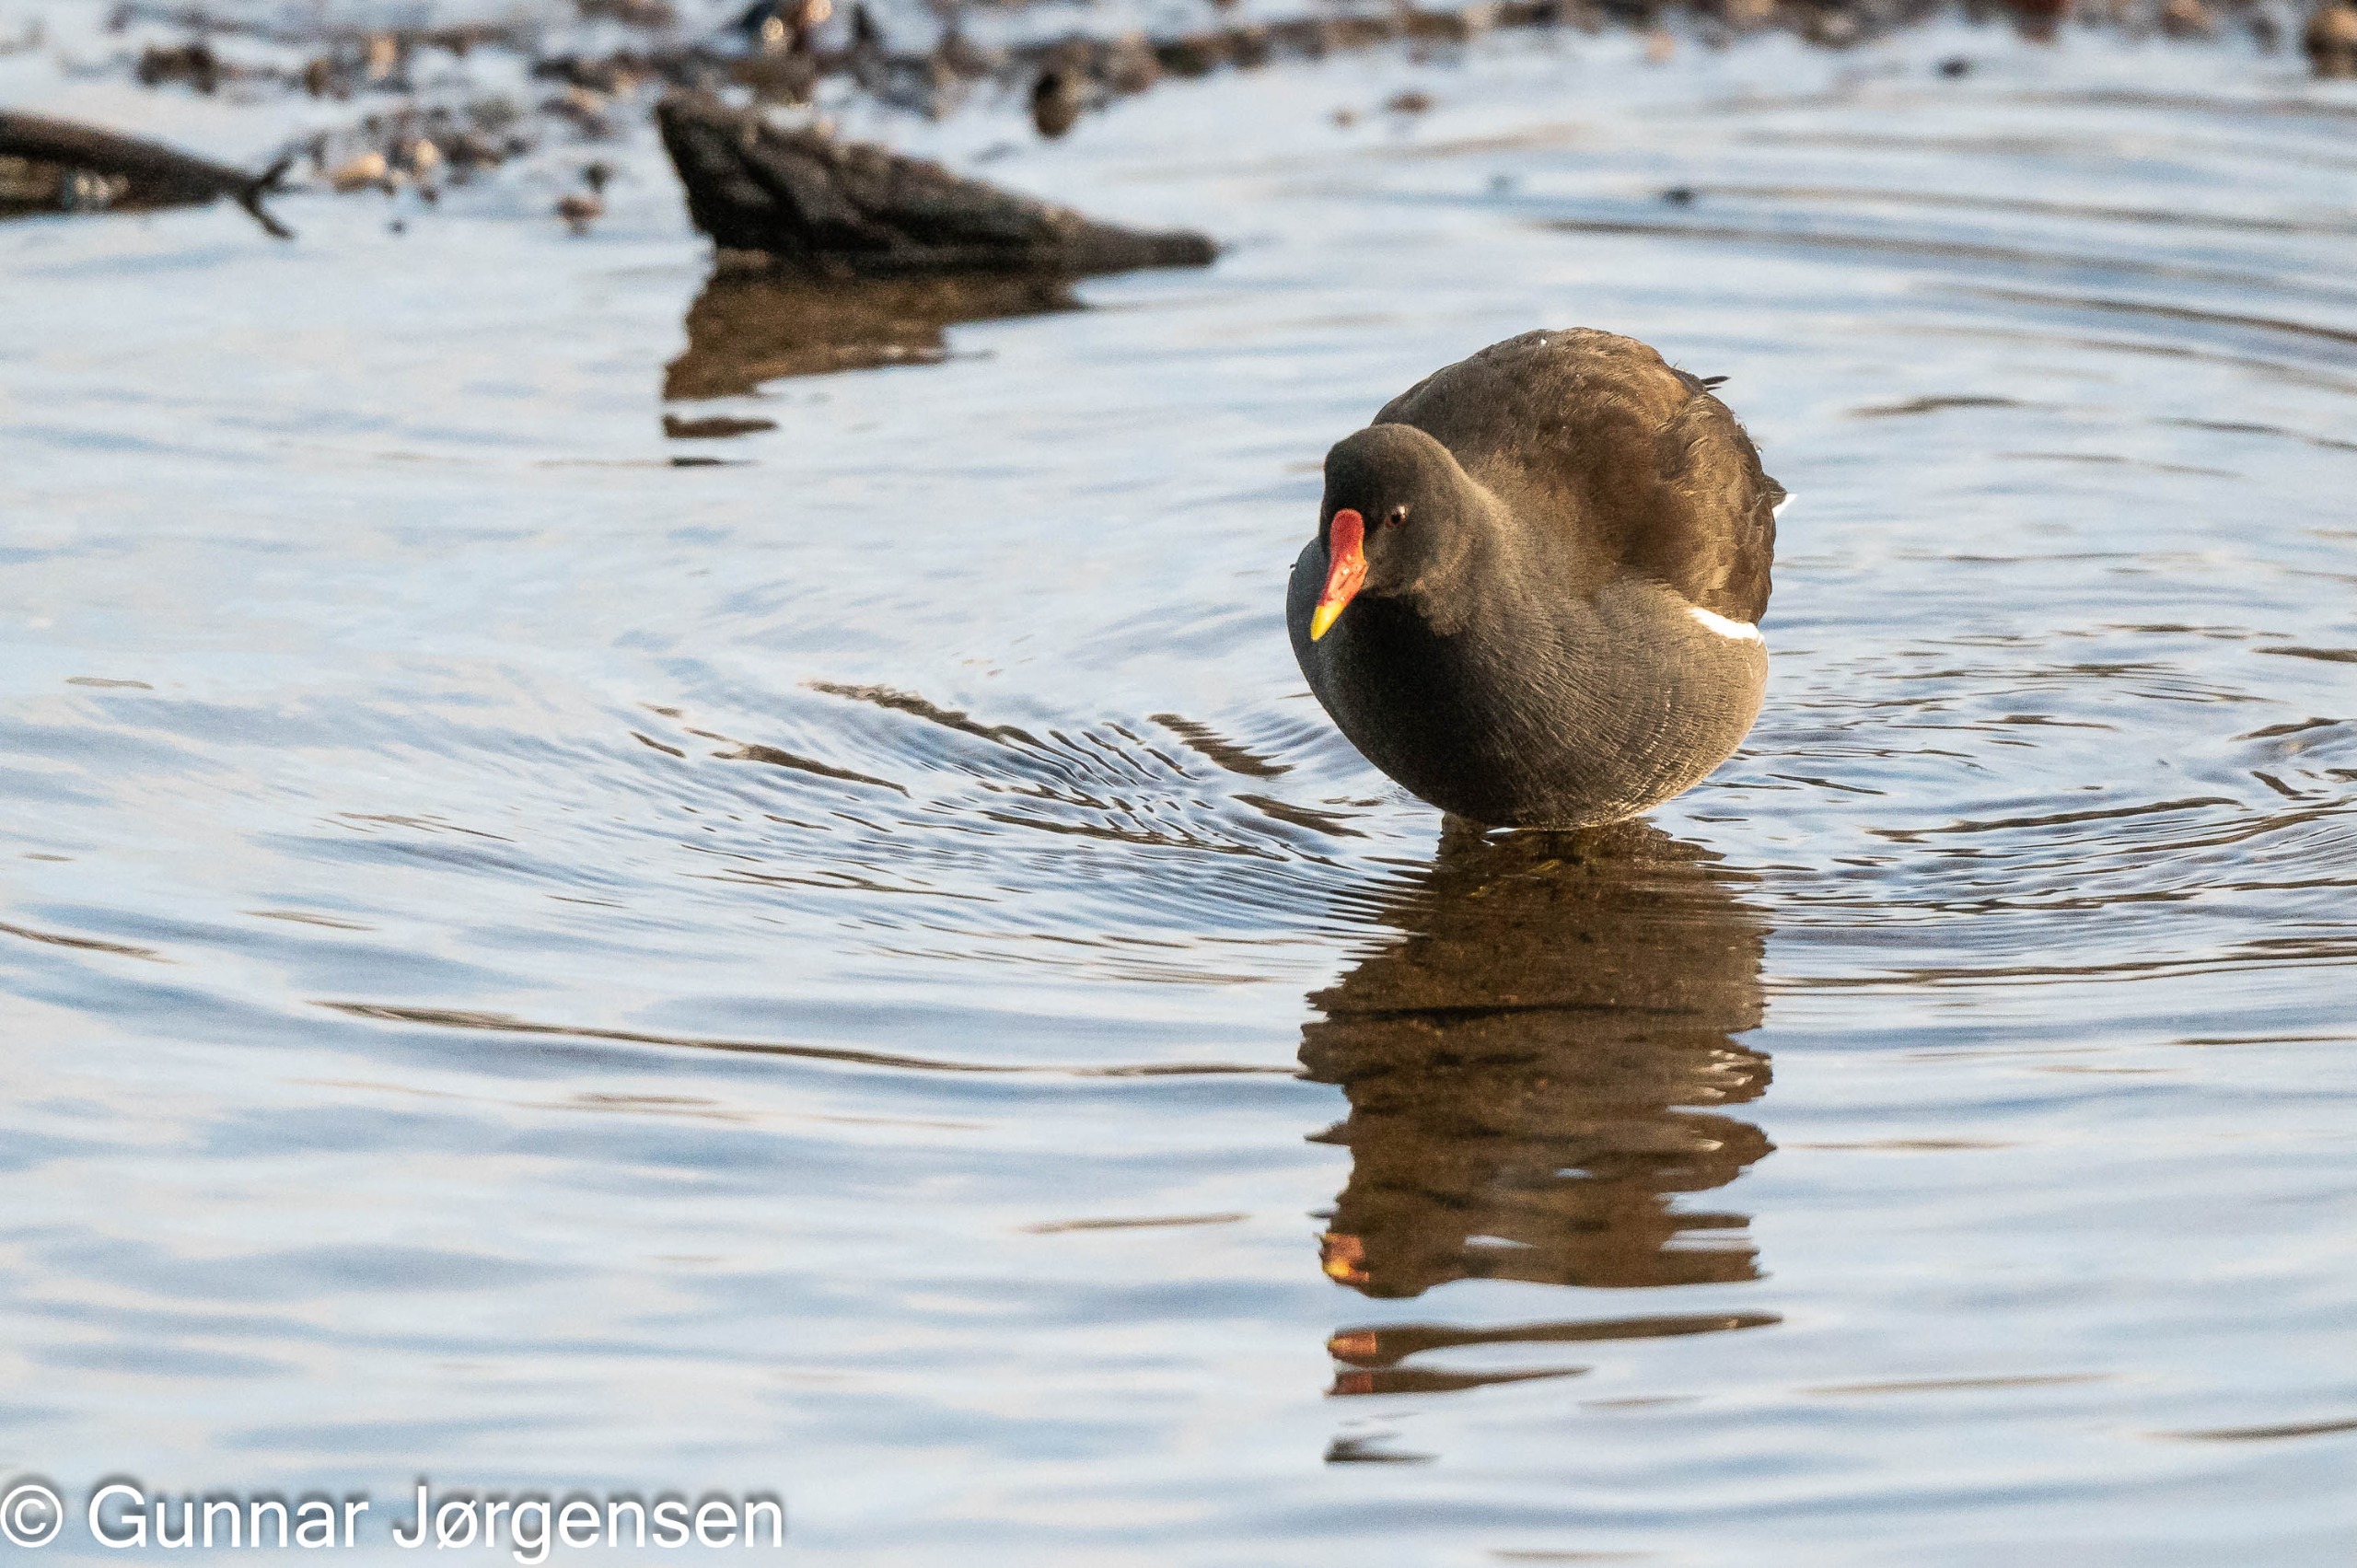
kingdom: Animalia
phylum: Chordata
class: Aves
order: Gruiformes
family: Rallidae
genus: Gallinula
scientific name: Gallinula chloropus
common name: Grønbenet rørhøne
